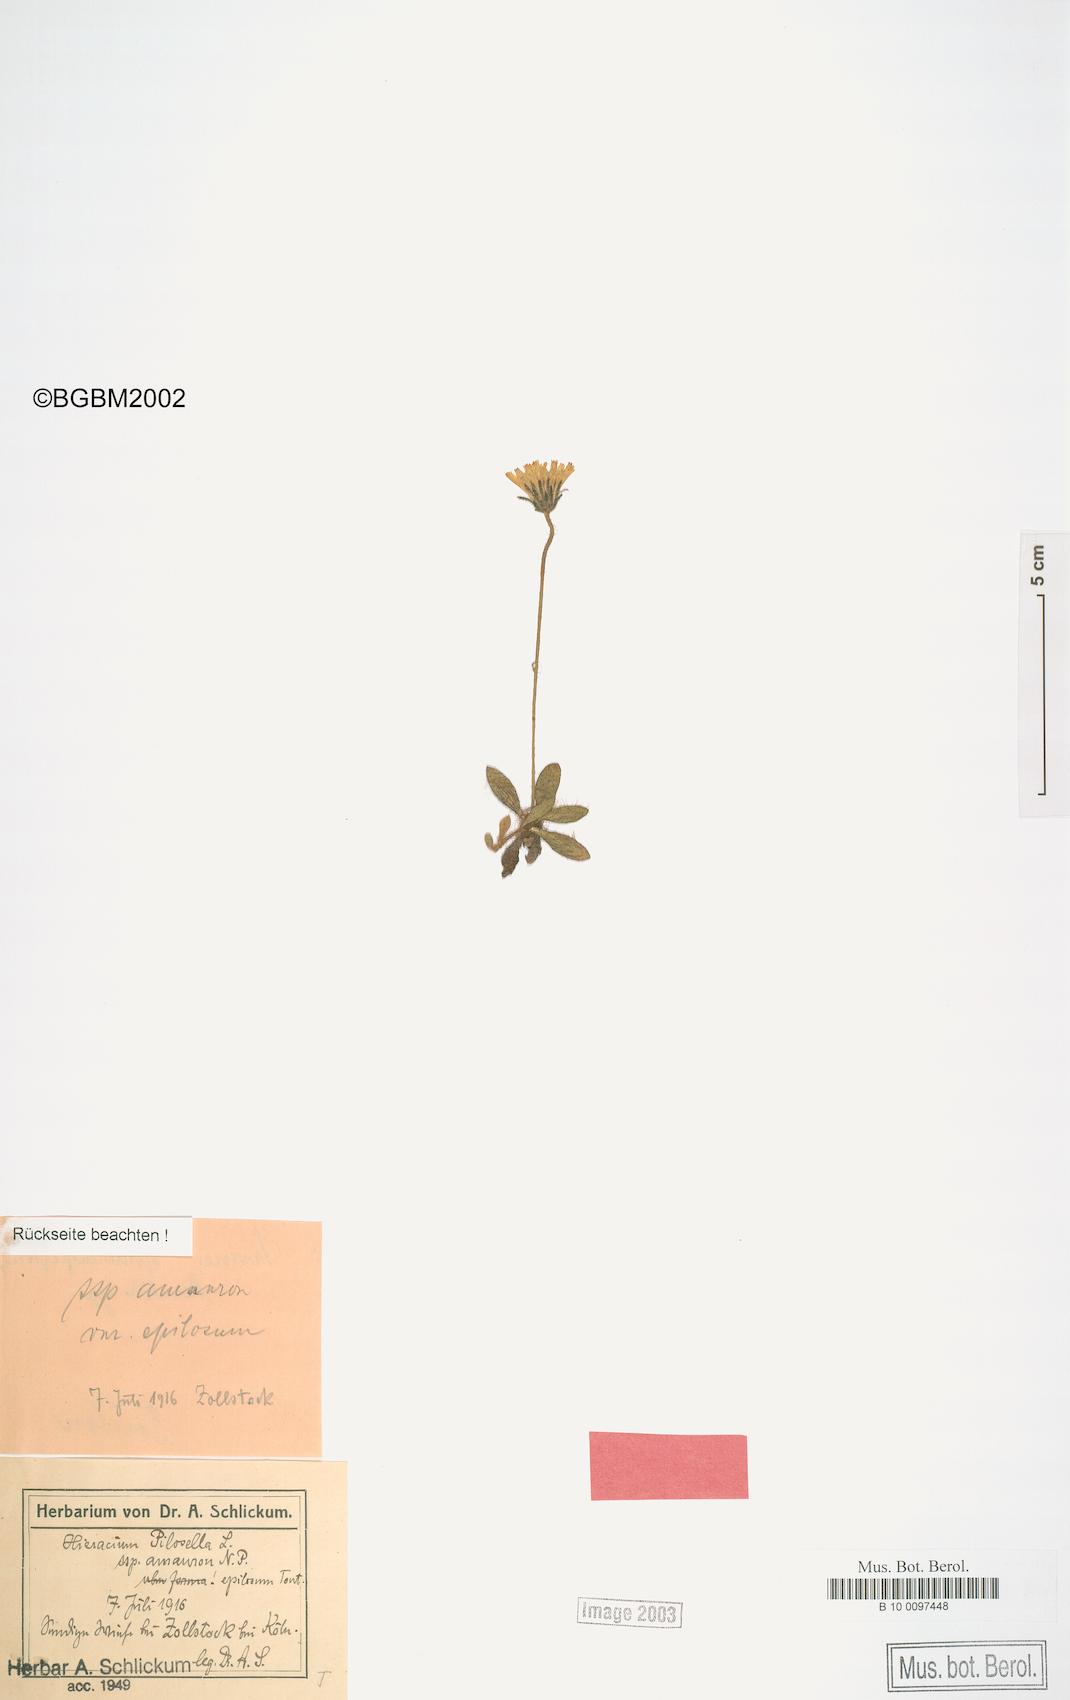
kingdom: Plantae
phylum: Tracheophyta
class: Magnoliopsida
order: Asterales
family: Asteraceae
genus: Pilosella
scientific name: Pilosella officinarum
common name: Mouse-ear hawkweed
